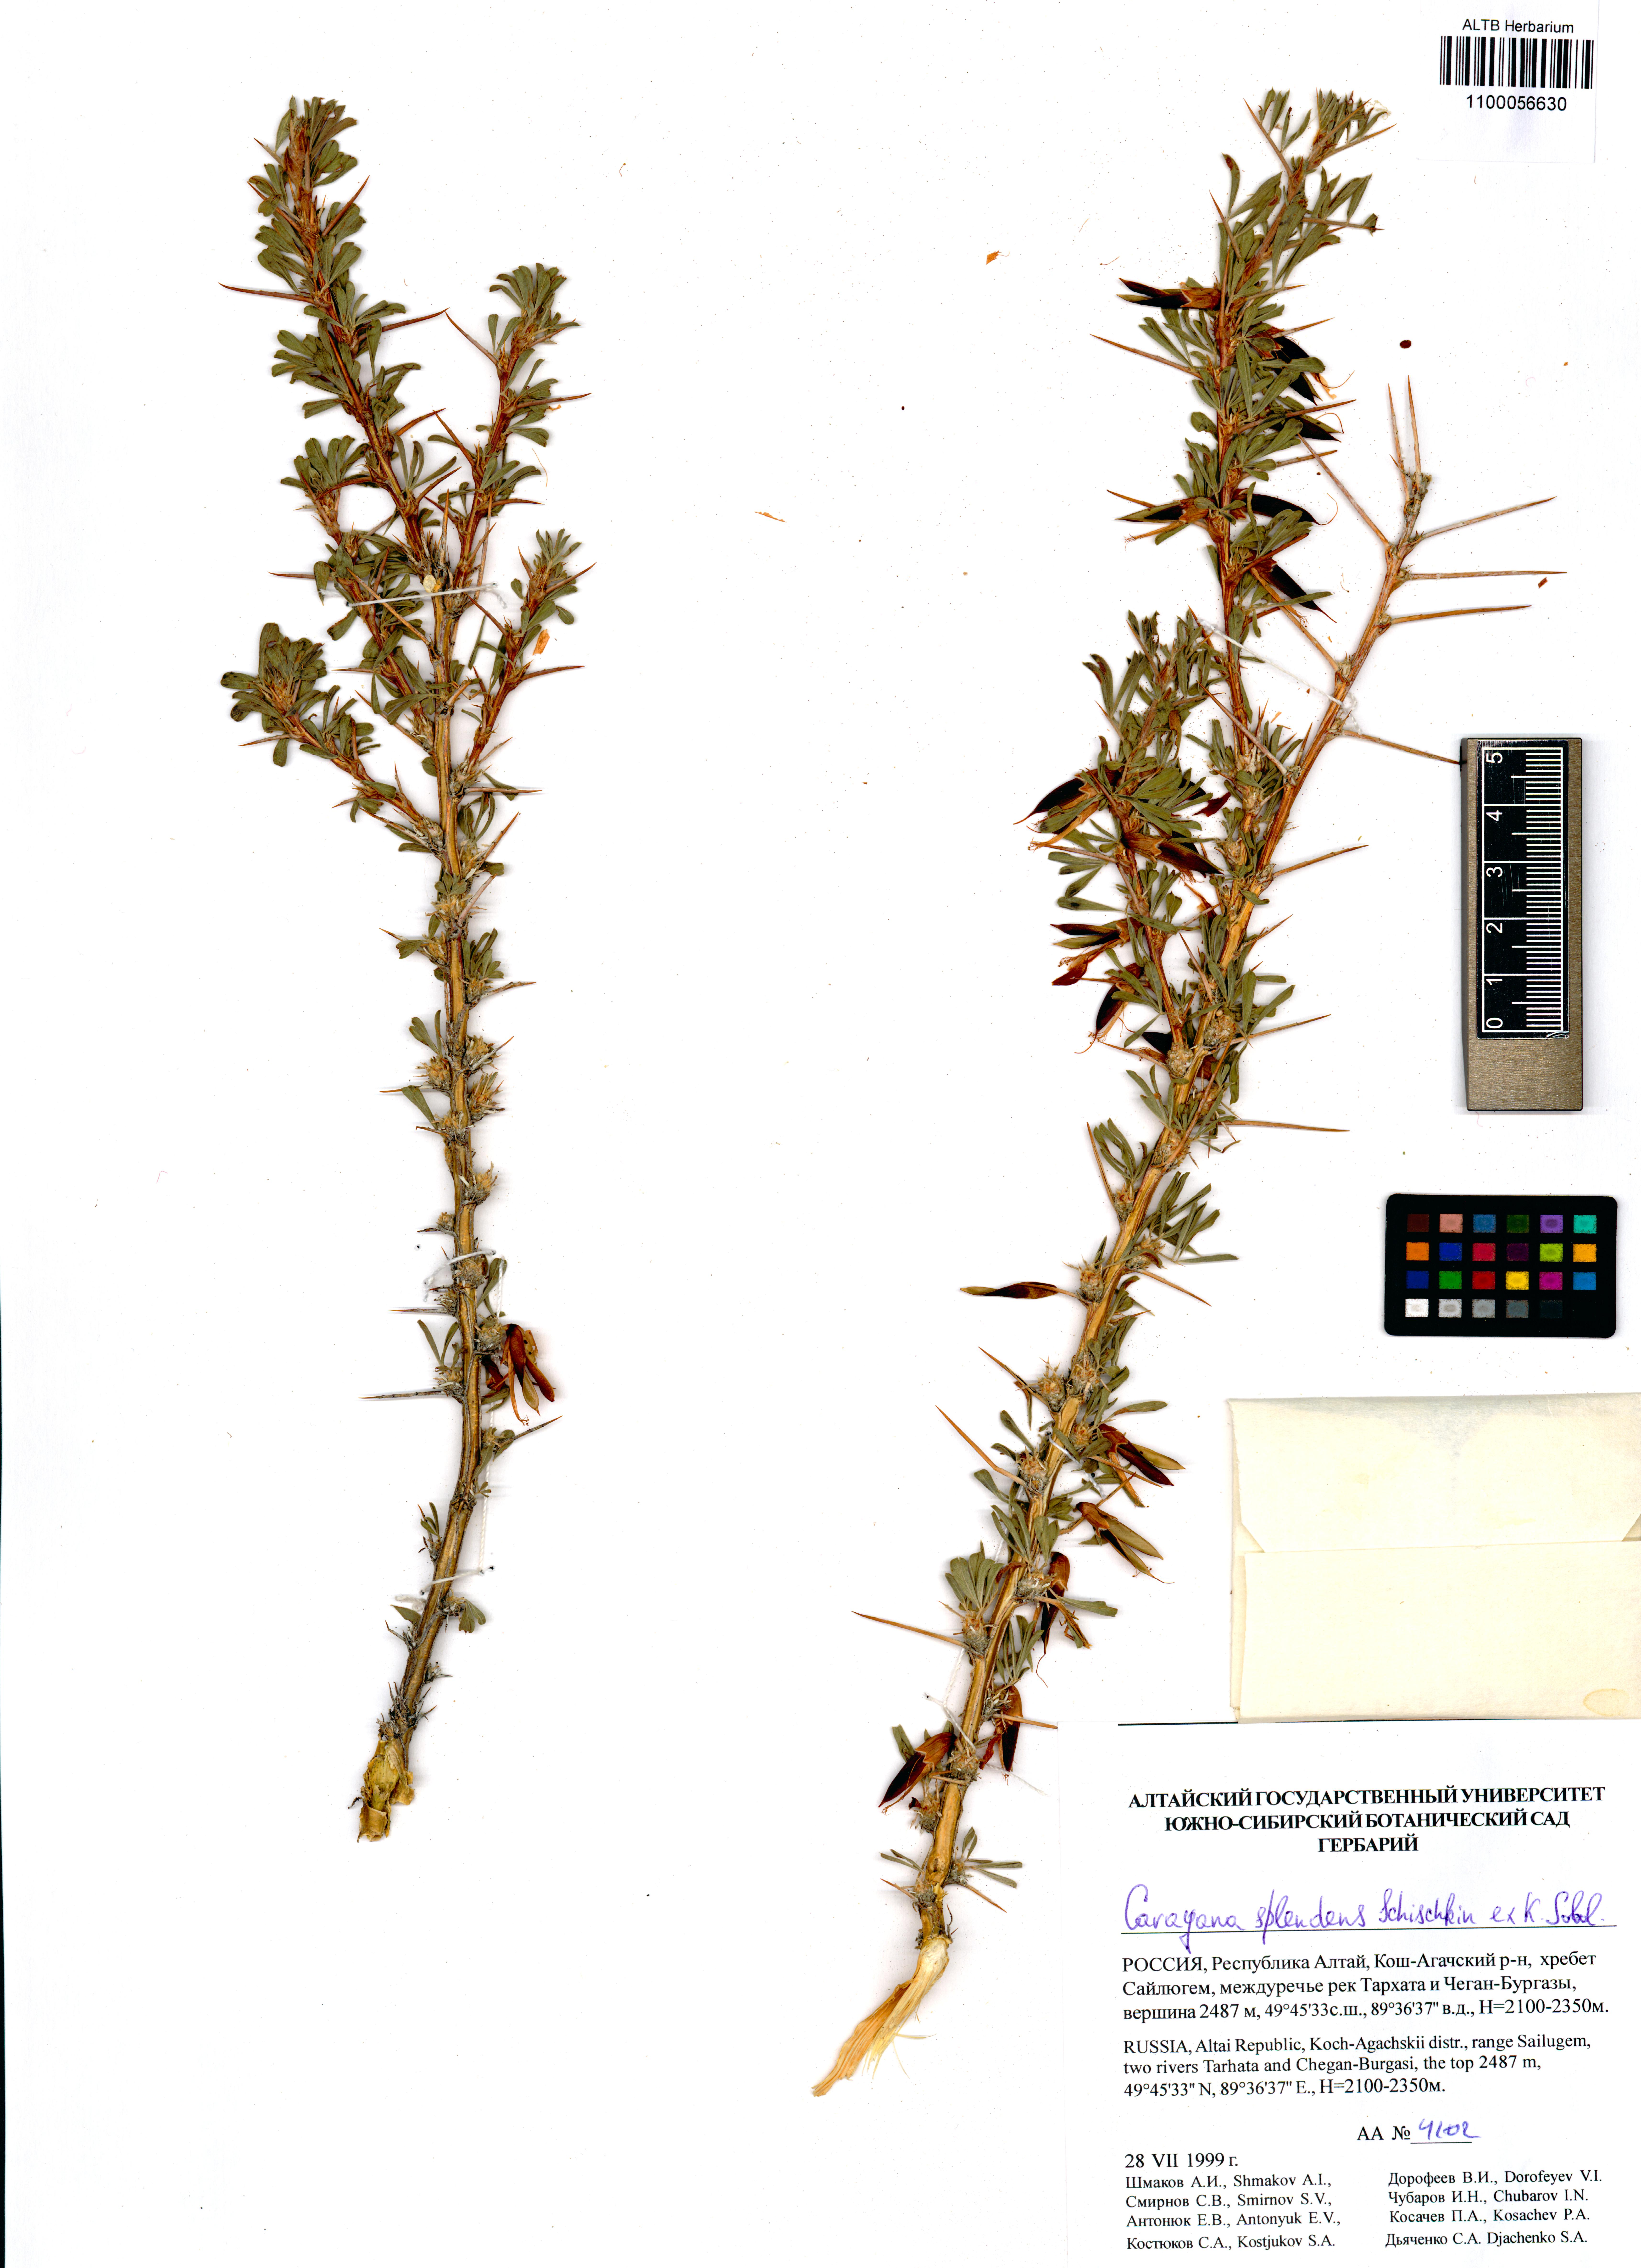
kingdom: Plantae
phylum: Tracheophyta
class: Magnoliopsida
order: Fabales
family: Fabaceae
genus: Caragana
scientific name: Caragana pygmaea
